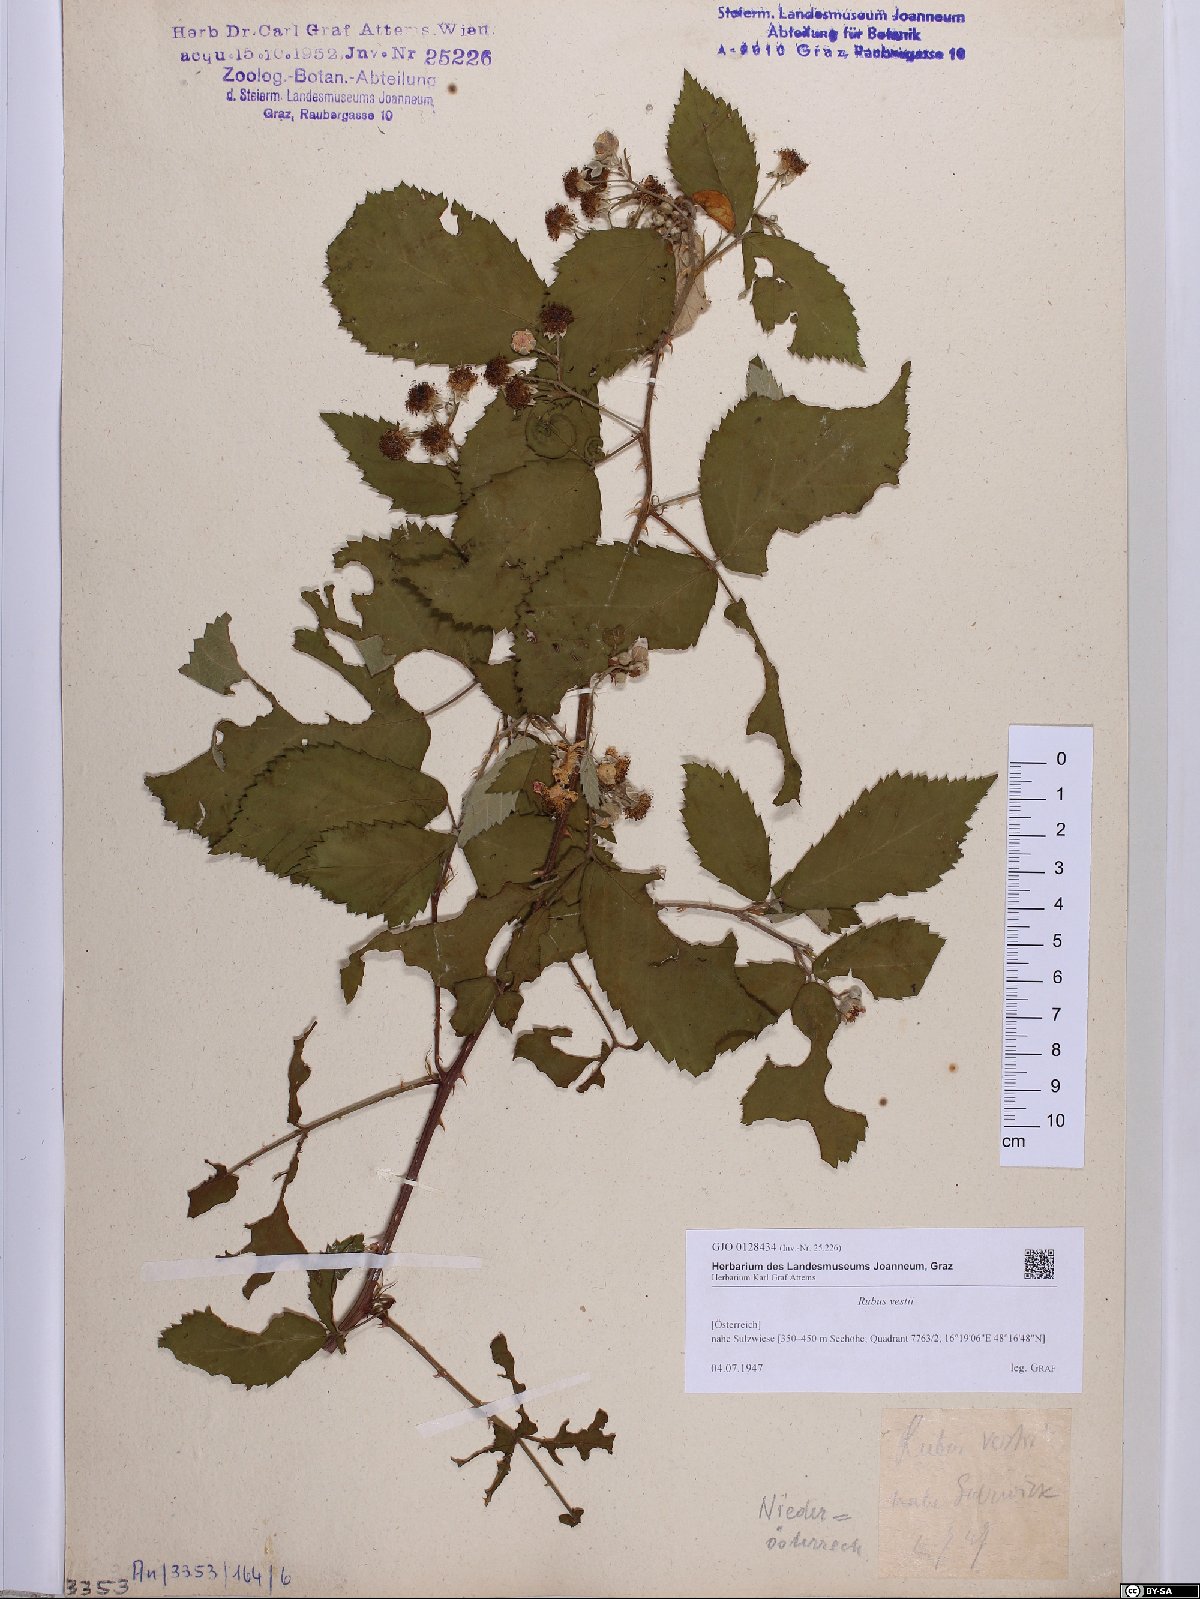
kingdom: Plantae
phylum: Tracheophyta
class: Magnoliopsida
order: Rosales
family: Rosaceae
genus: Rubus
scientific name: Rubus constrictus
